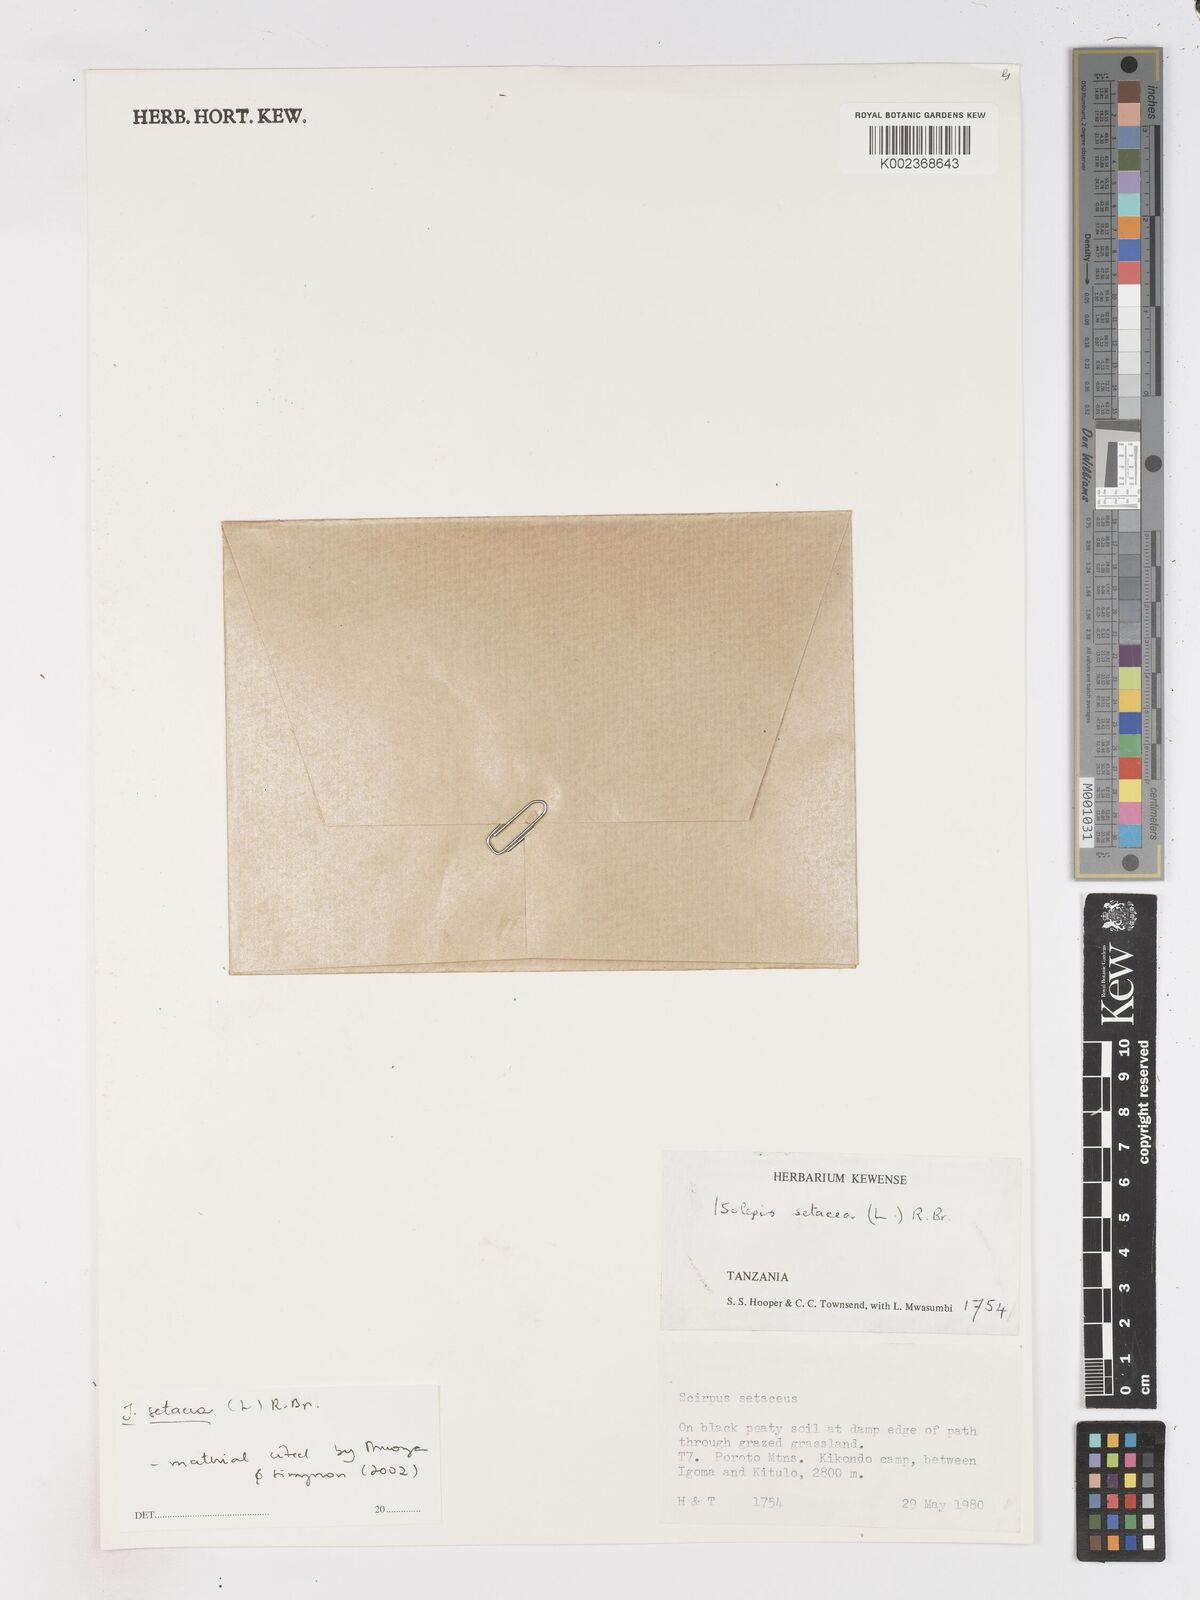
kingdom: Plantae
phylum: Tracheophyta
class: Liliopsida
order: Poales
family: Cyperaceae
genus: Isolepis
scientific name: Isolepis setacea
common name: Bristle club-rush
